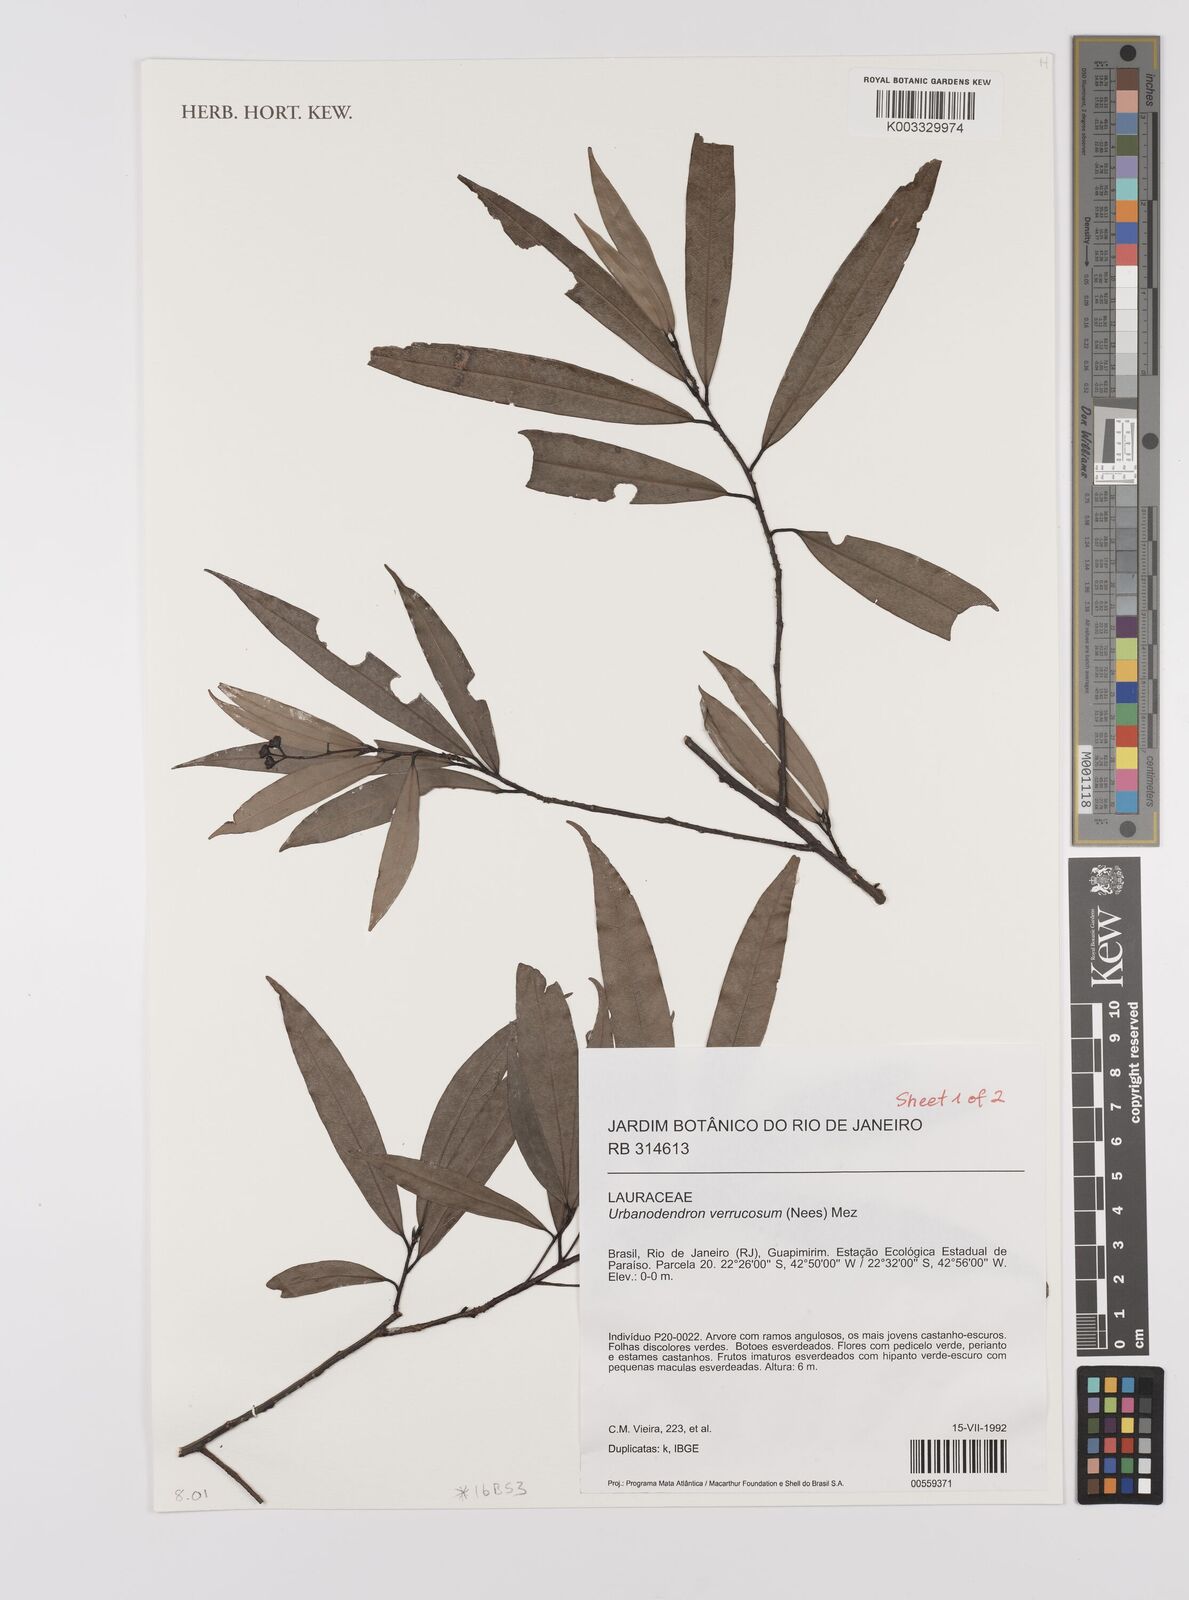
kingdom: Plantae
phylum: Tracheophyta
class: Magnoliopsida
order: Laurales
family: Lauraceae
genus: Urbanodendron
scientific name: Urbanodendron verrucosum
